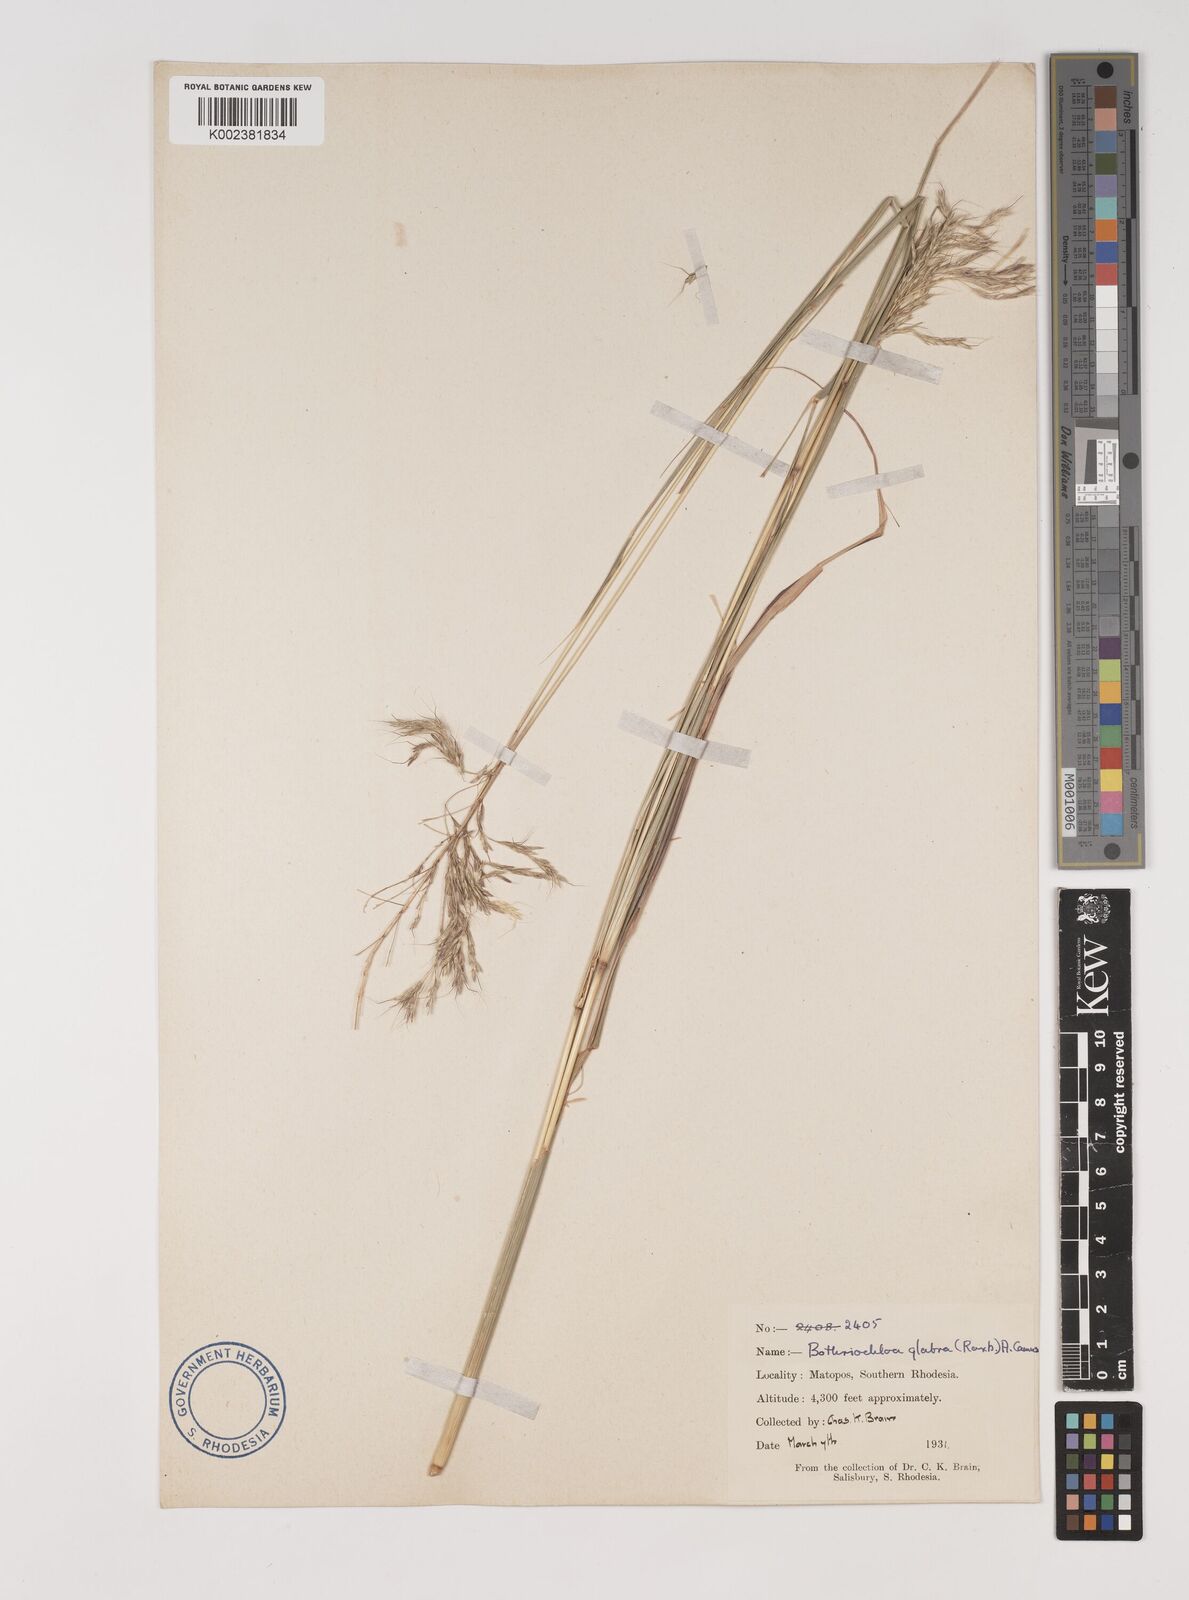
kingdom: Plantae
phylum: Tracheophyta
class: Liliopsida
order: Poales
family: Poaceae
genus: Bothriochloa
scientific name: Bothriochloa bladhii
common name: Caucasian bluestem
